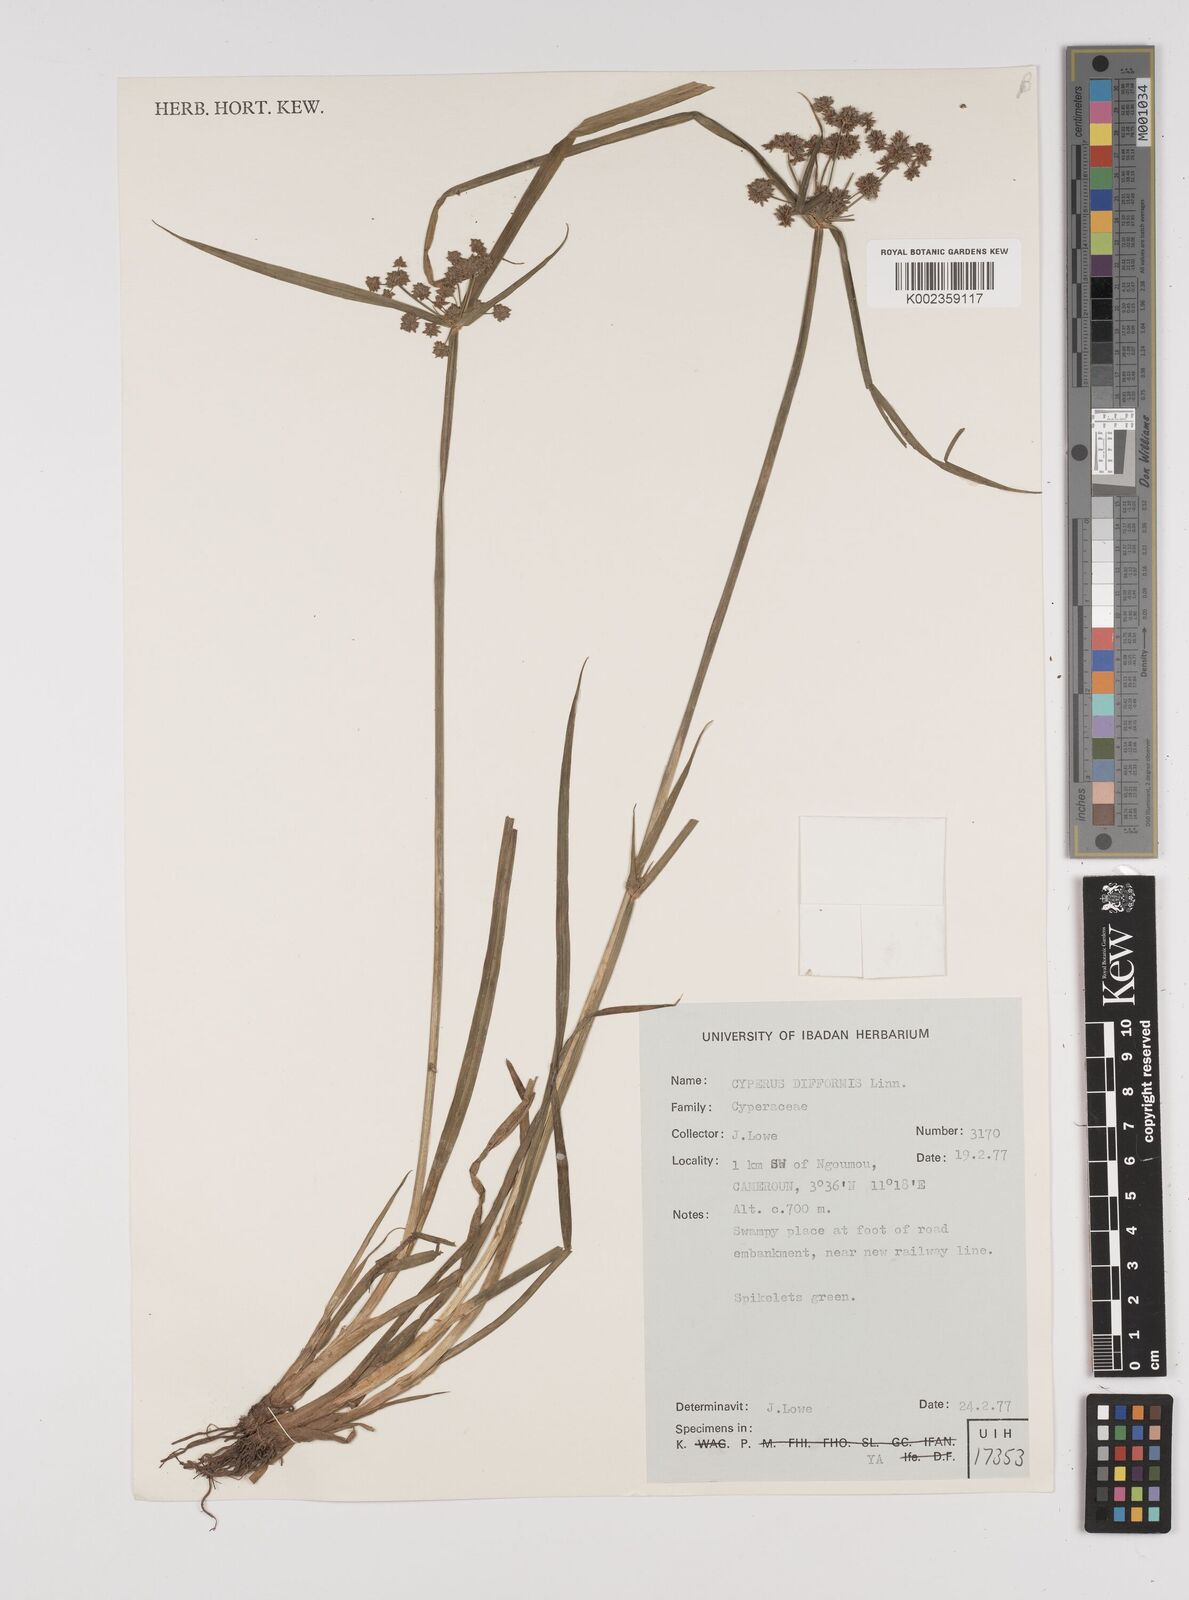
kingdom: Plantae
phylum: Tracheophyta
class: Liliopsida
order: Poales
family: Cyperaceae
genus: Cyperus
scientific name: Cyperus difformis
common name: Variable flatsedge
